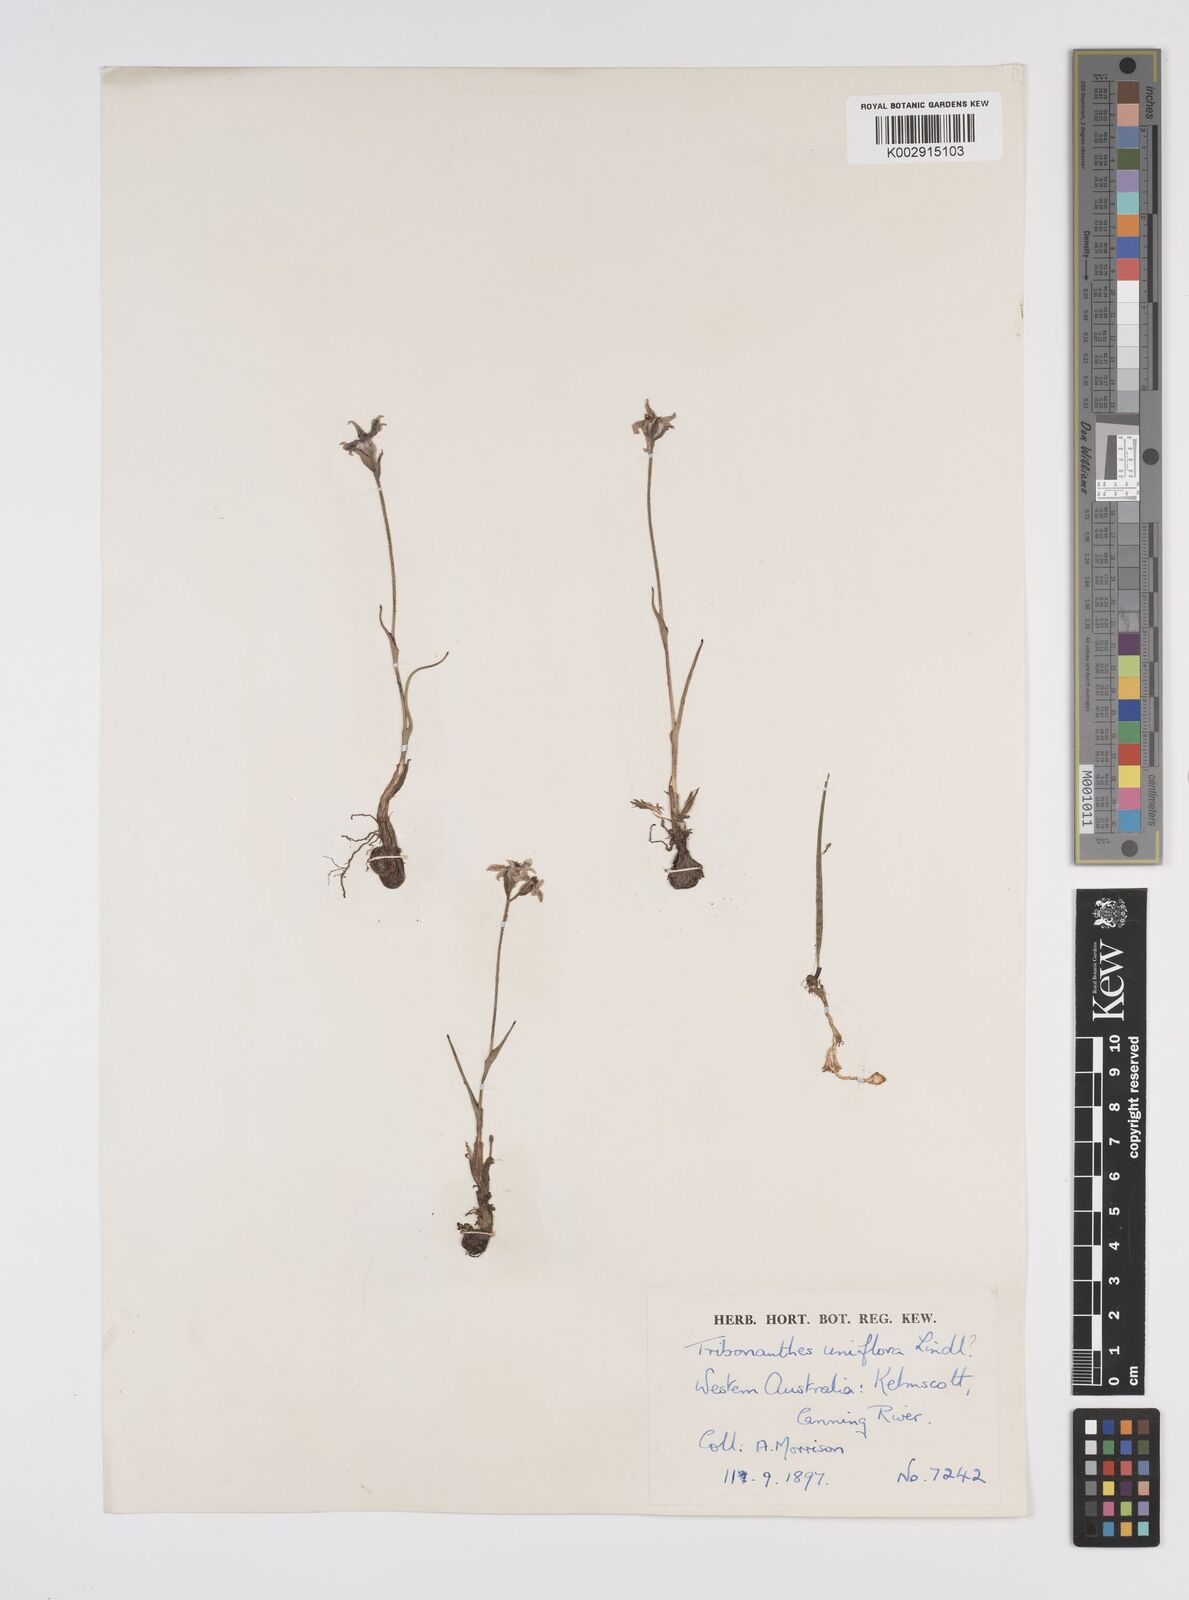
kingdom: Plantae
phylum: Tracheophyta
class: Liliopsida
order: Commelinales
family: Haemodoraceae
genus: Tribonanthes
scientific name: Tribonanthes uniflora
